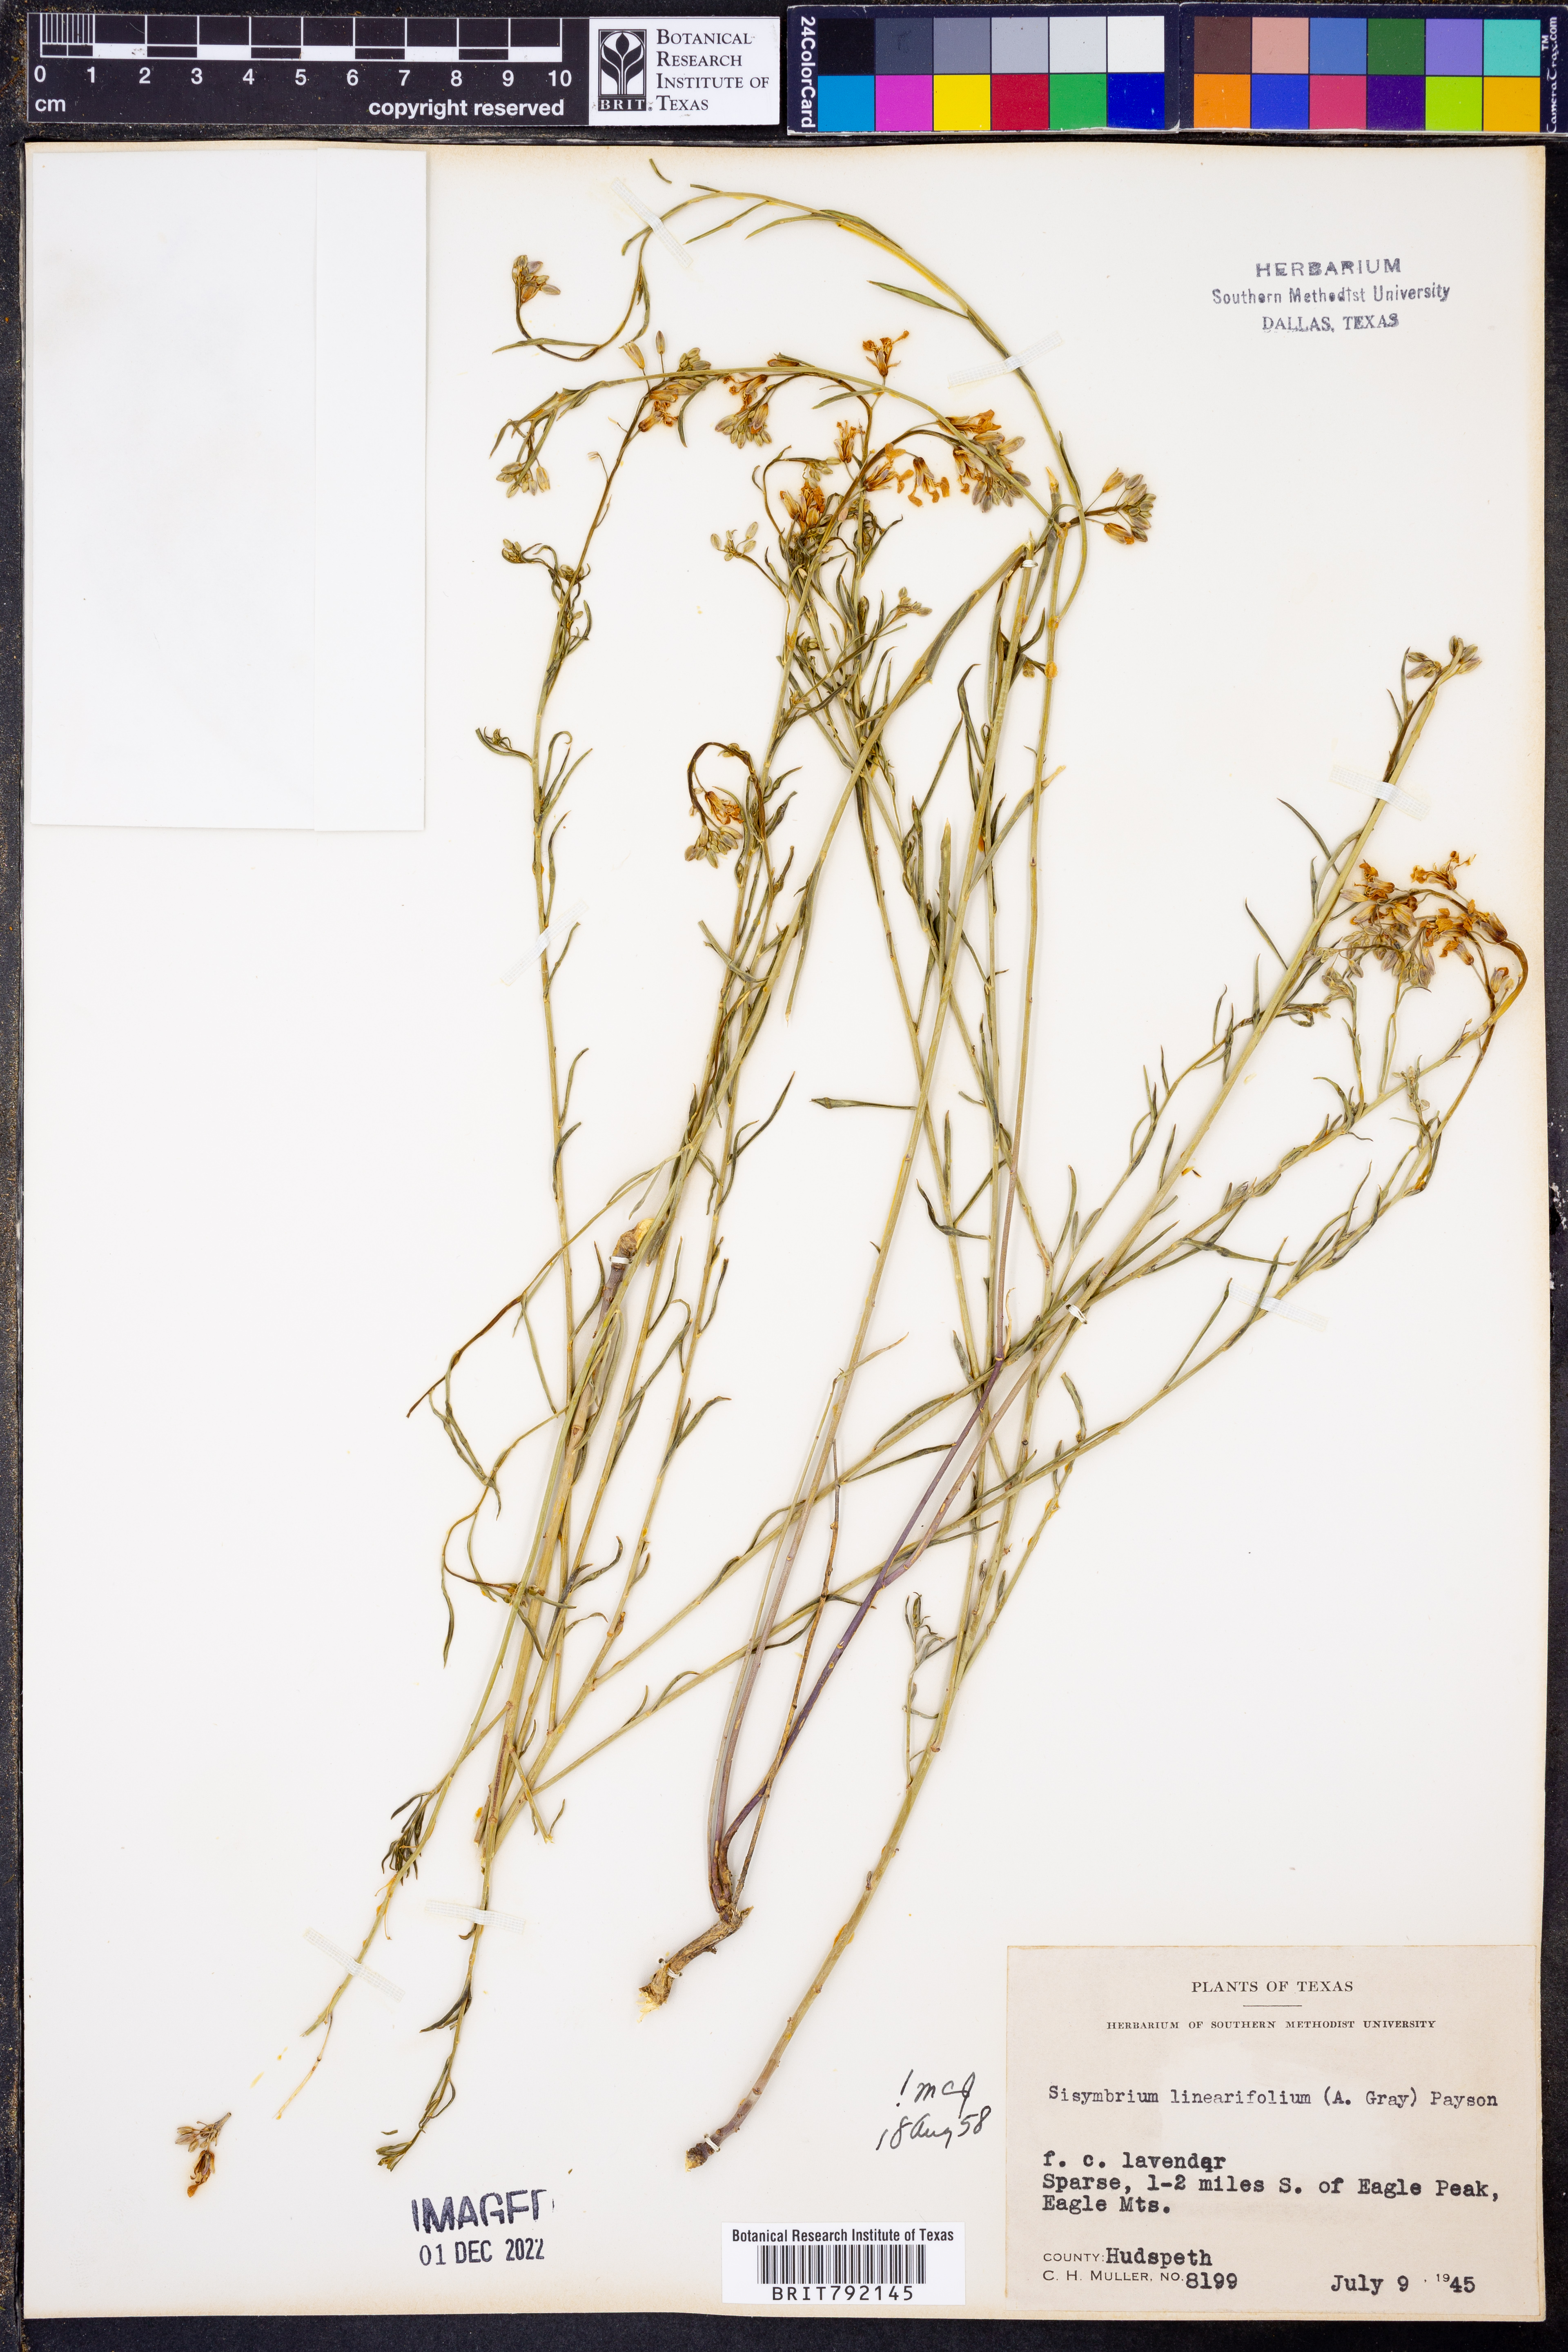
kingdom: Plantae
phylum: Tracheophyta
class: Magnoliopsida
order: Brassicales
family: Brassicaceae
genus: Hesperidanthus
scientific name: Hesperidanthus linearifolius
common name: Slim-leaf plains mustard
